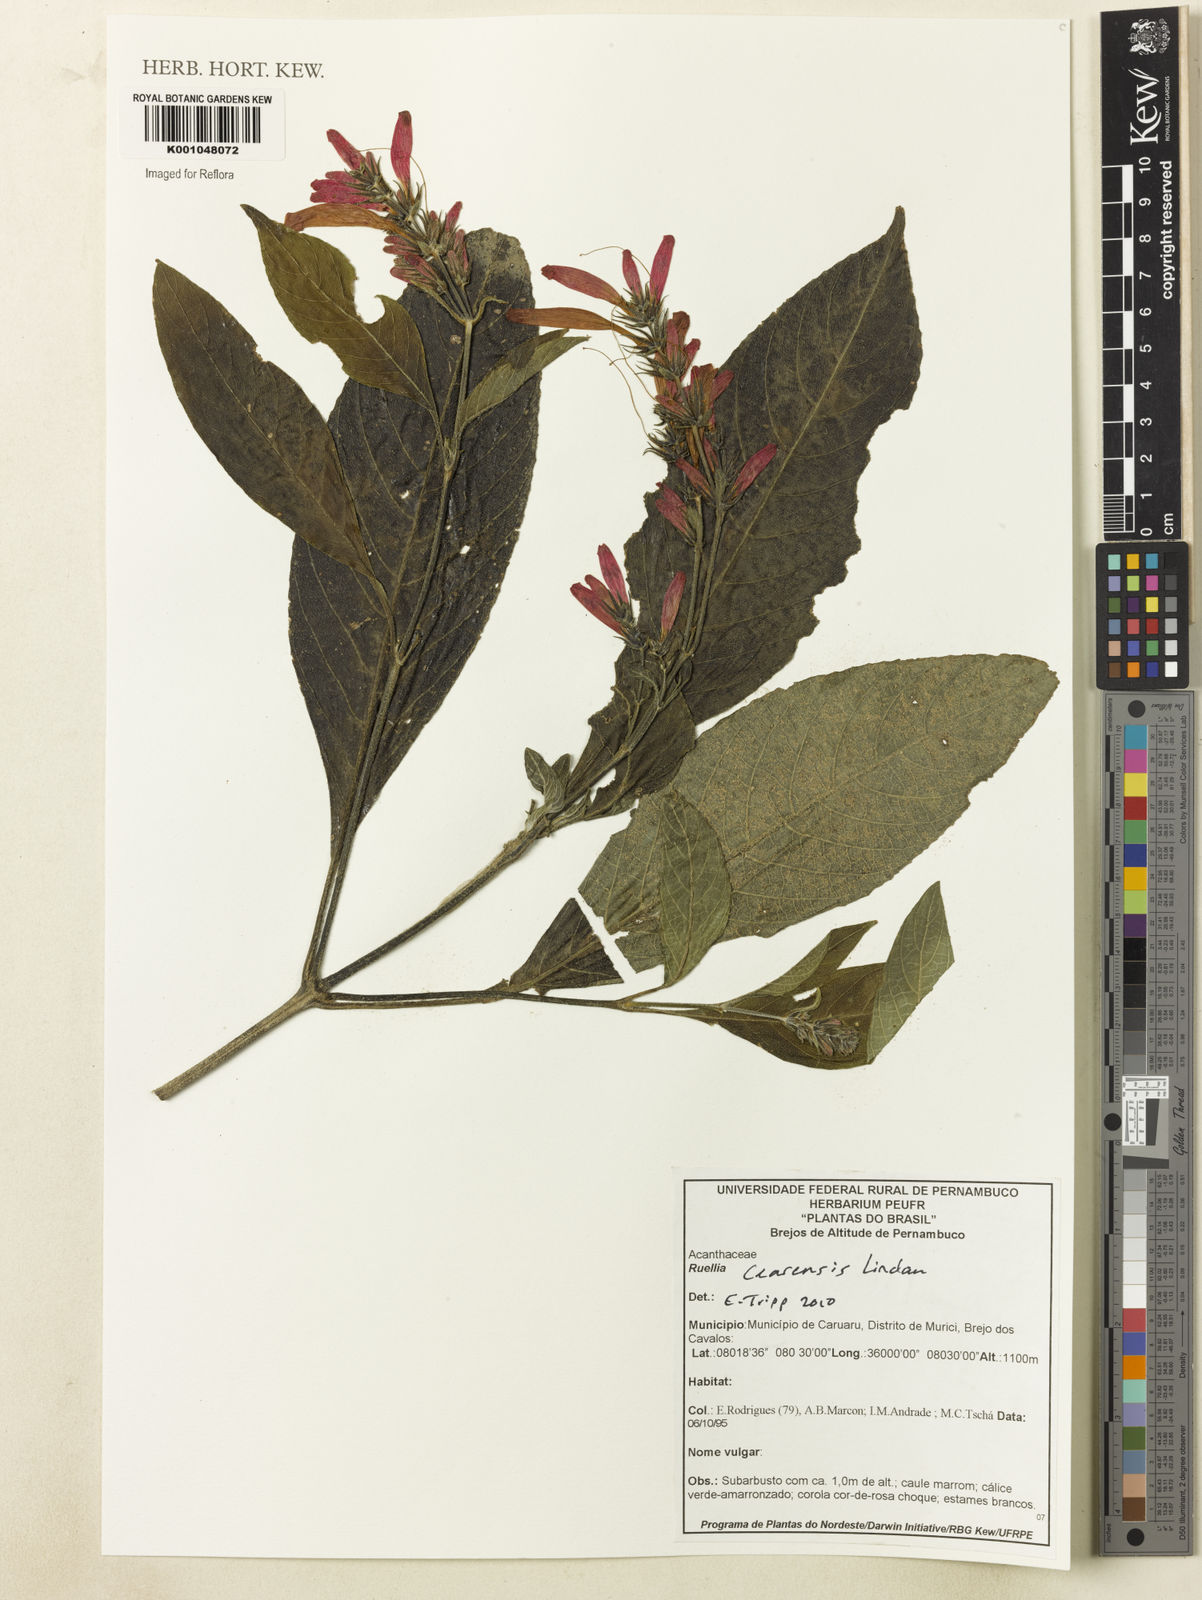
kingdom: Plantae
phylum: Tracheophyta
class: Magnoliopsida
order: Lamiales
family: Acanthaceae
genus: Ruellia
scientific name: Ruellia cearensis
